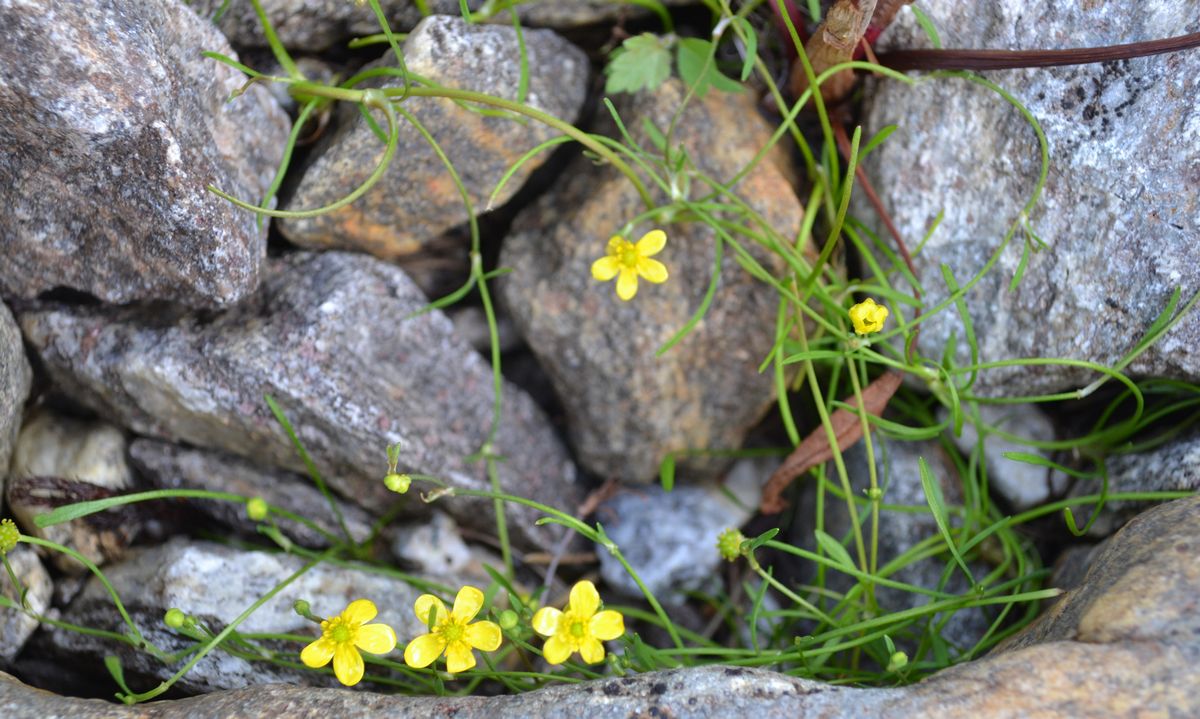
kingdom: Plantae
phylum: Tracheophyta
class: Magnoliopsida
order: Ranunculales
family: Ranunculaceae
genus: Ranunculus
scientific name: Ranunculus reptans
